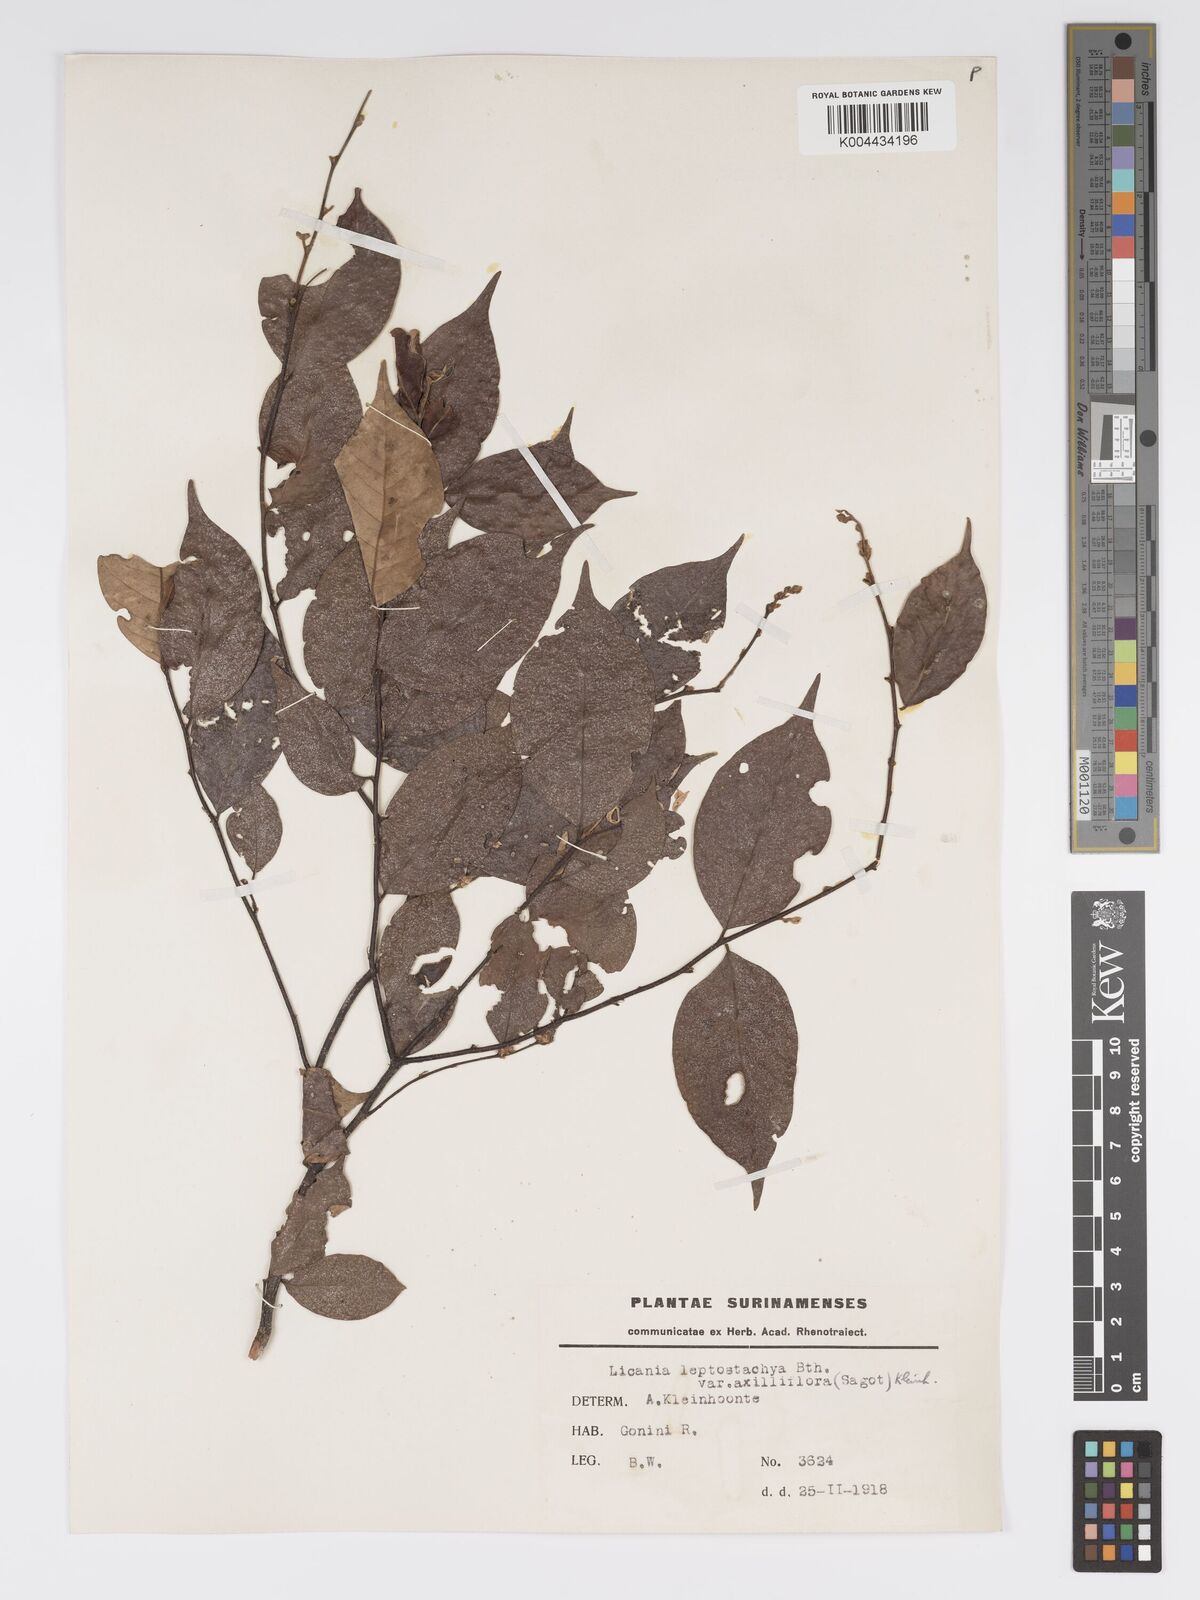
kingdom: Plantae
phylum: Tracheophyta
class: Magnoliopsida
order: Malpighiales
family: Chrysobalanaceae
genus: Licania
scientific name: Licania leptostachya
